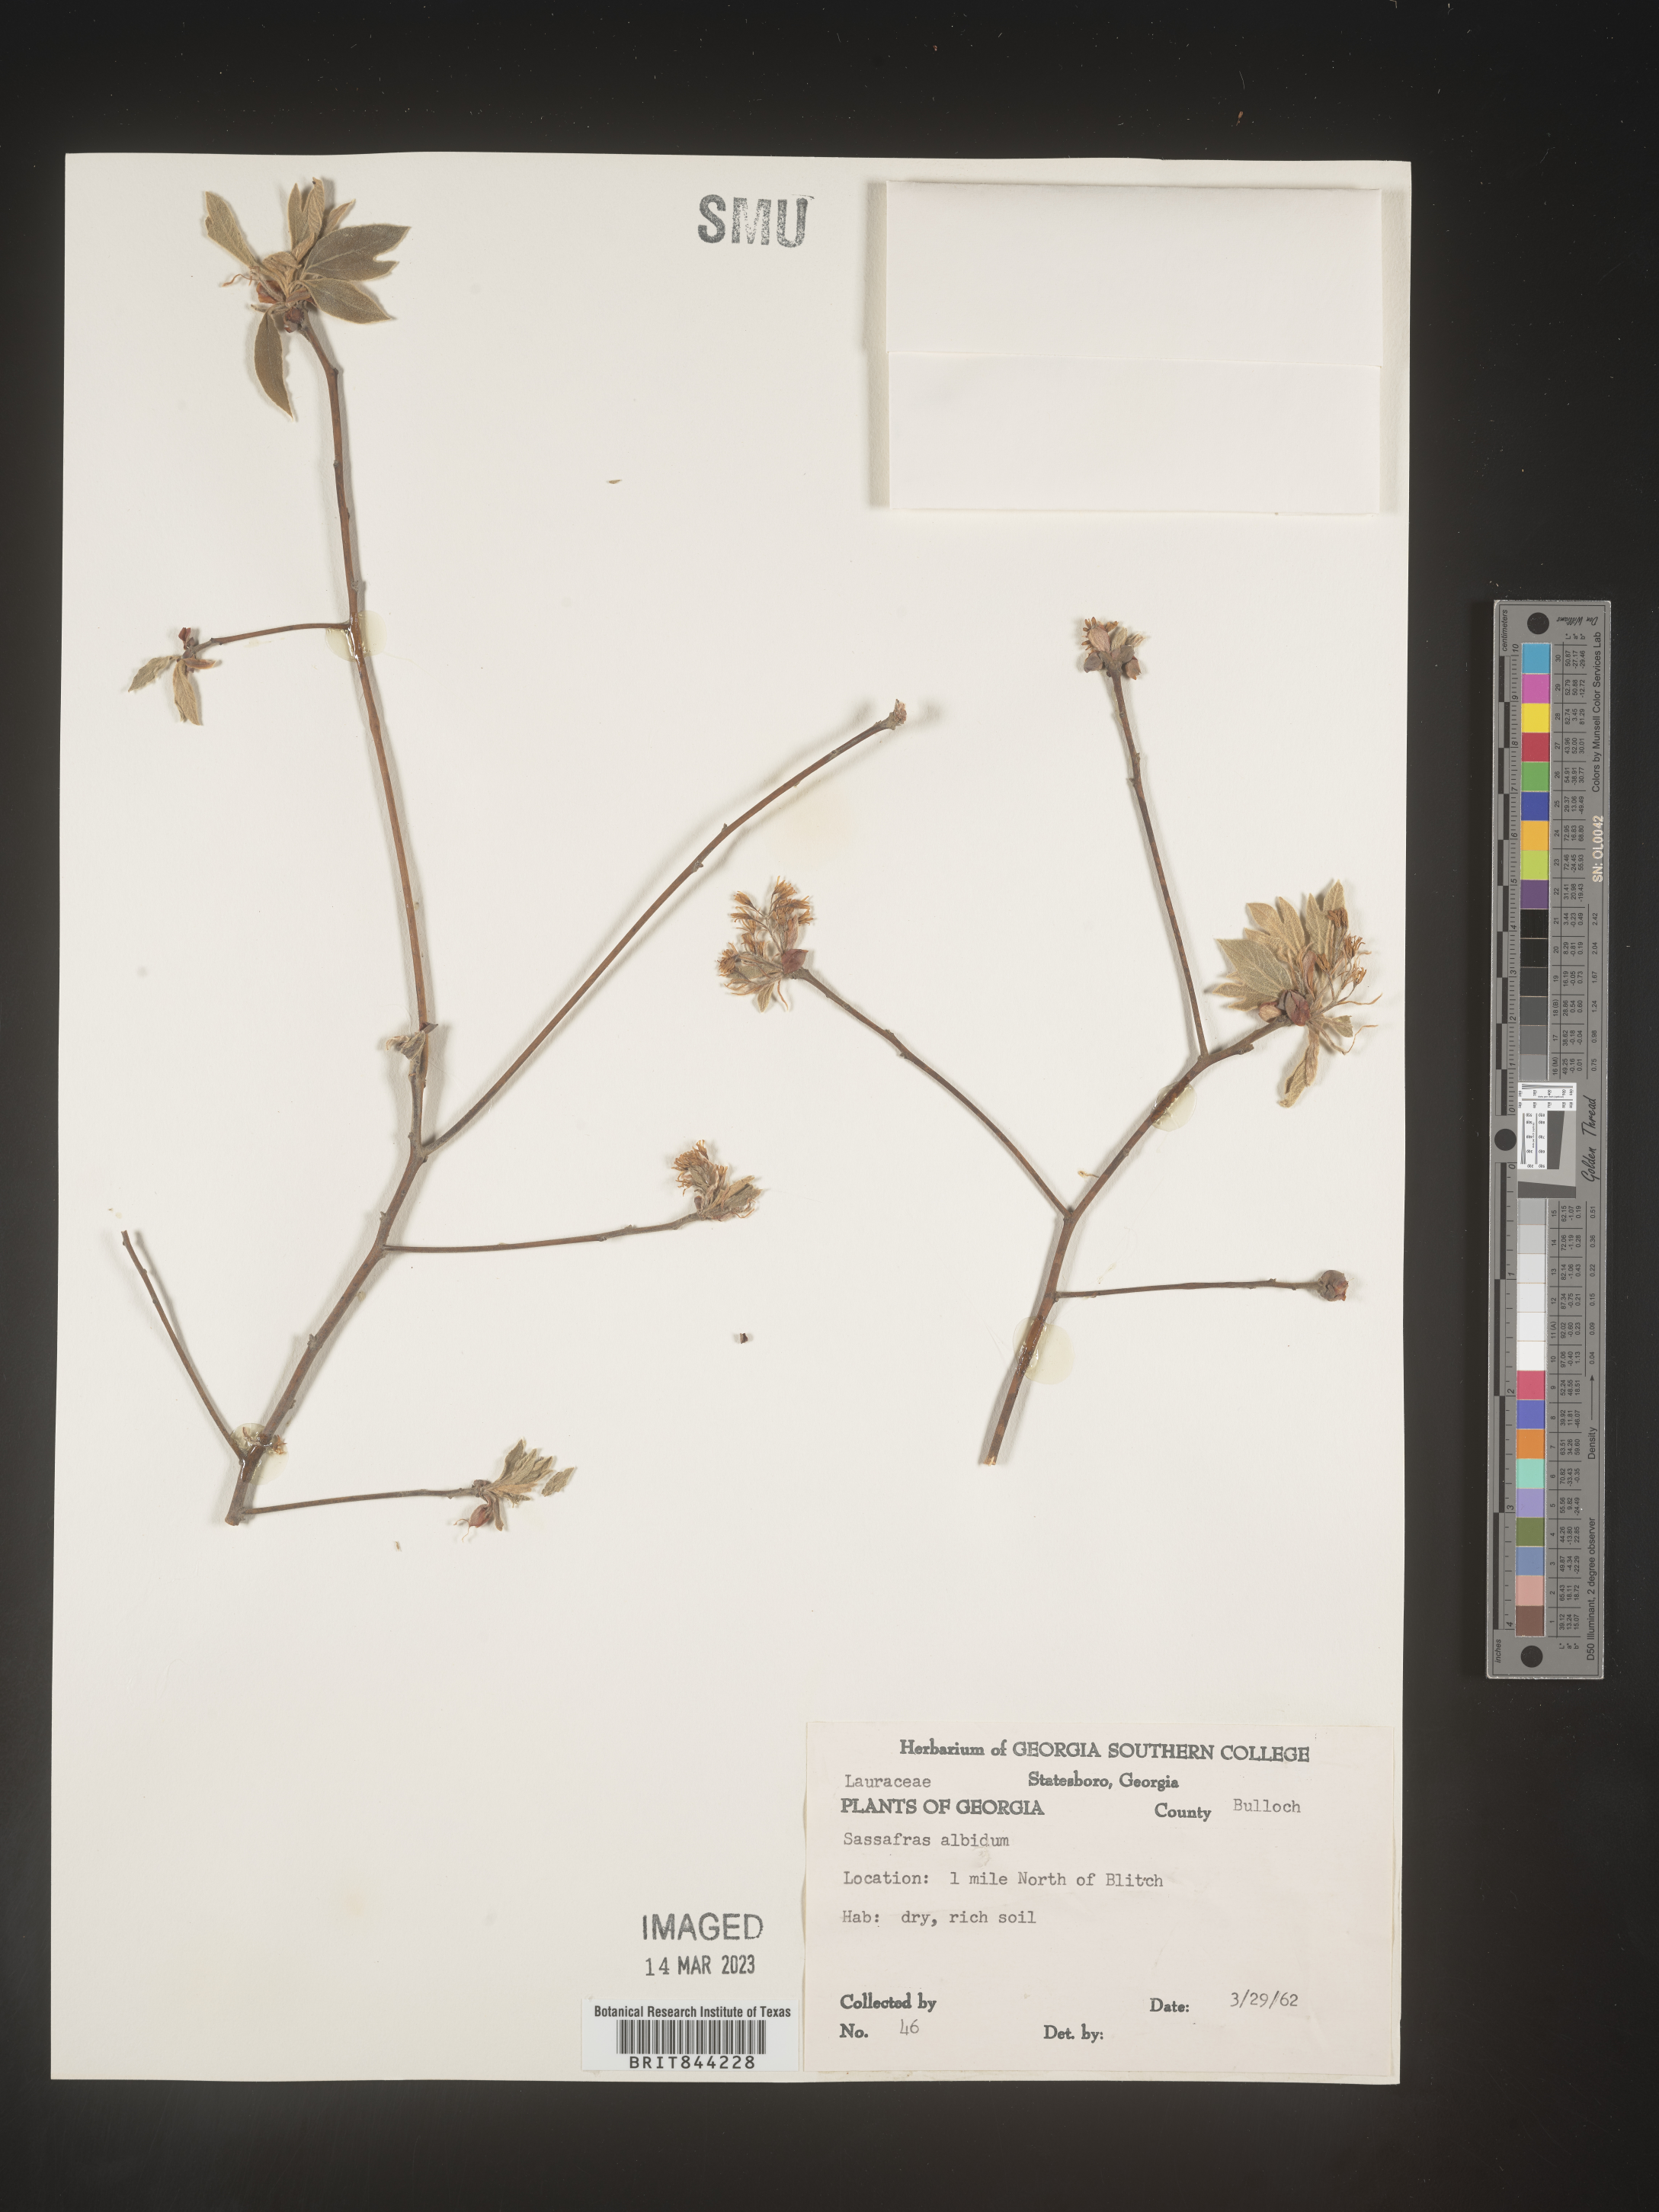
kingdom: Plantae
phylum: Tracheophyta
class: Magnoliopsida
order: Laurales
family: Lauraceae
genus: Sassafras
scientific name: Sassafras albidum
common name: Sassafras
